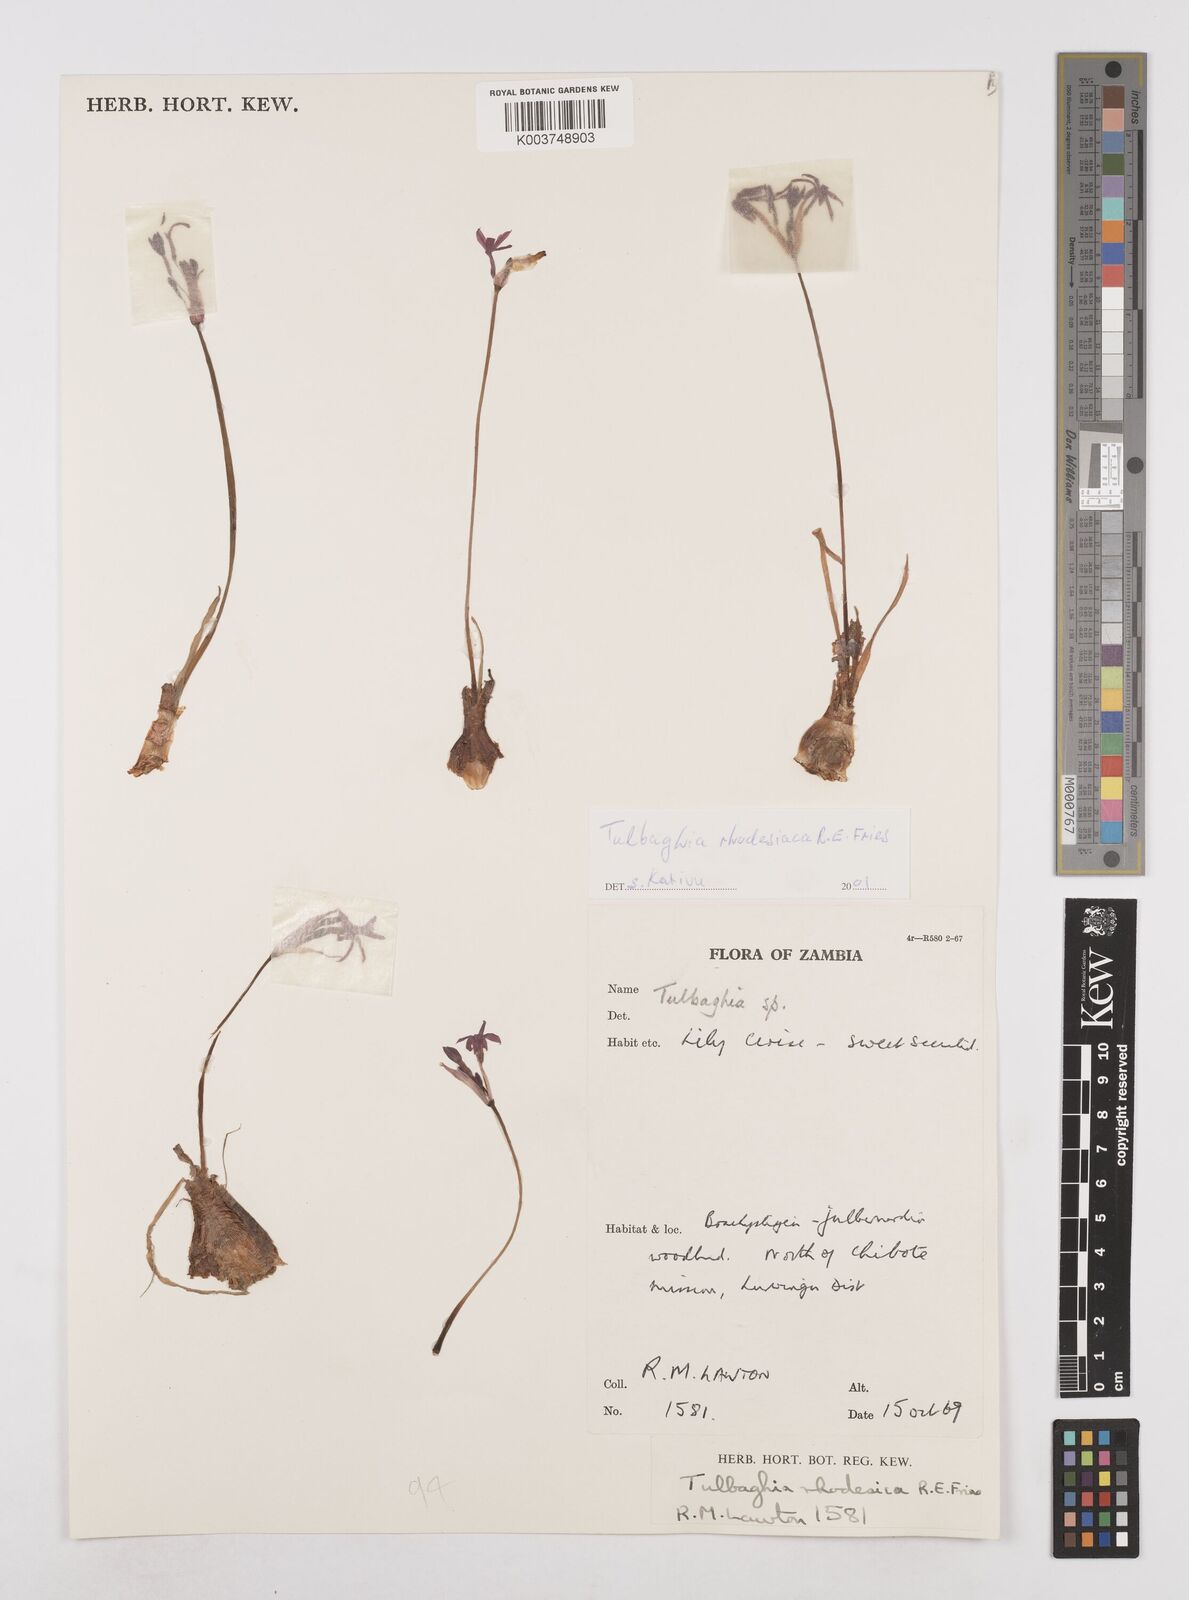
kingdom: Plantae
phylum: Tracheophyta
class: Liliopsida
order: Asparagales
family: Amaryllidaceae
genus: Tulbaghia
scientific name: Tulbaghia rhodesica
